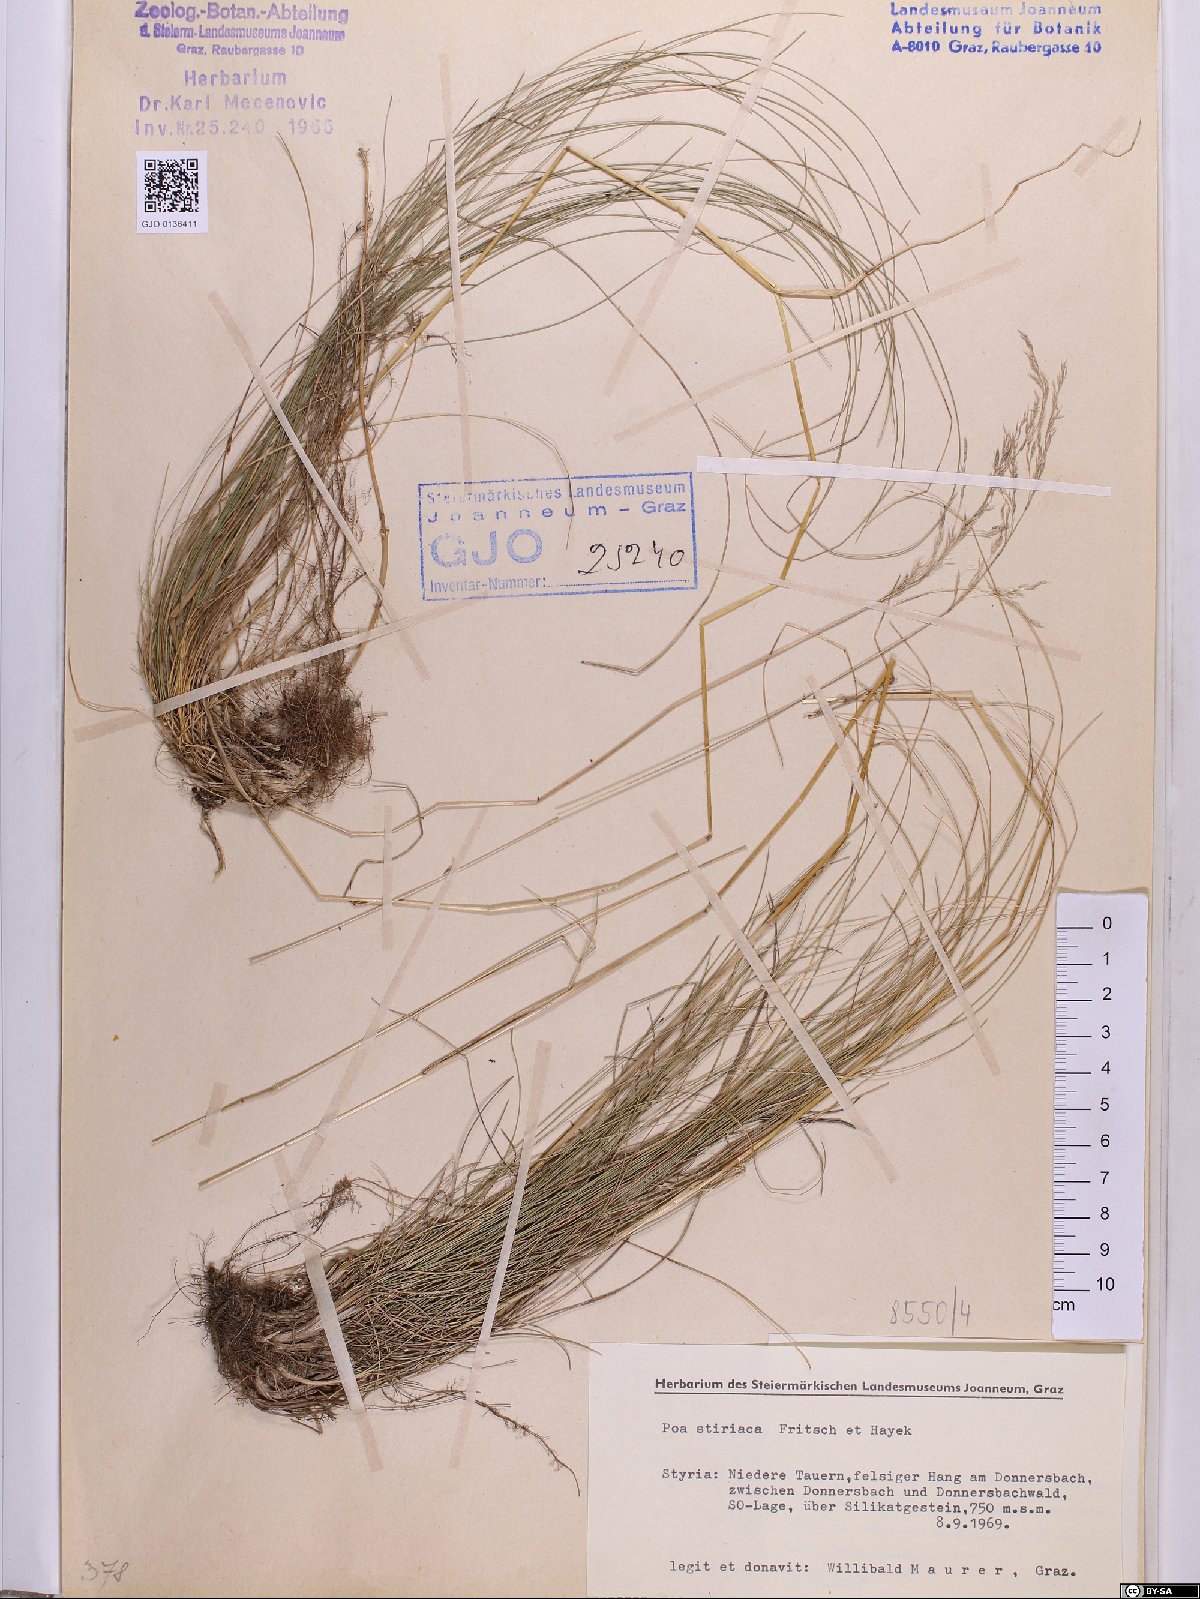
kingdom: Plantae
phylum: Tracheophyta
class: Liliopsida
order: Poales
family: Poaceae
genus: Poa
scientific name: Poa stiriaca
